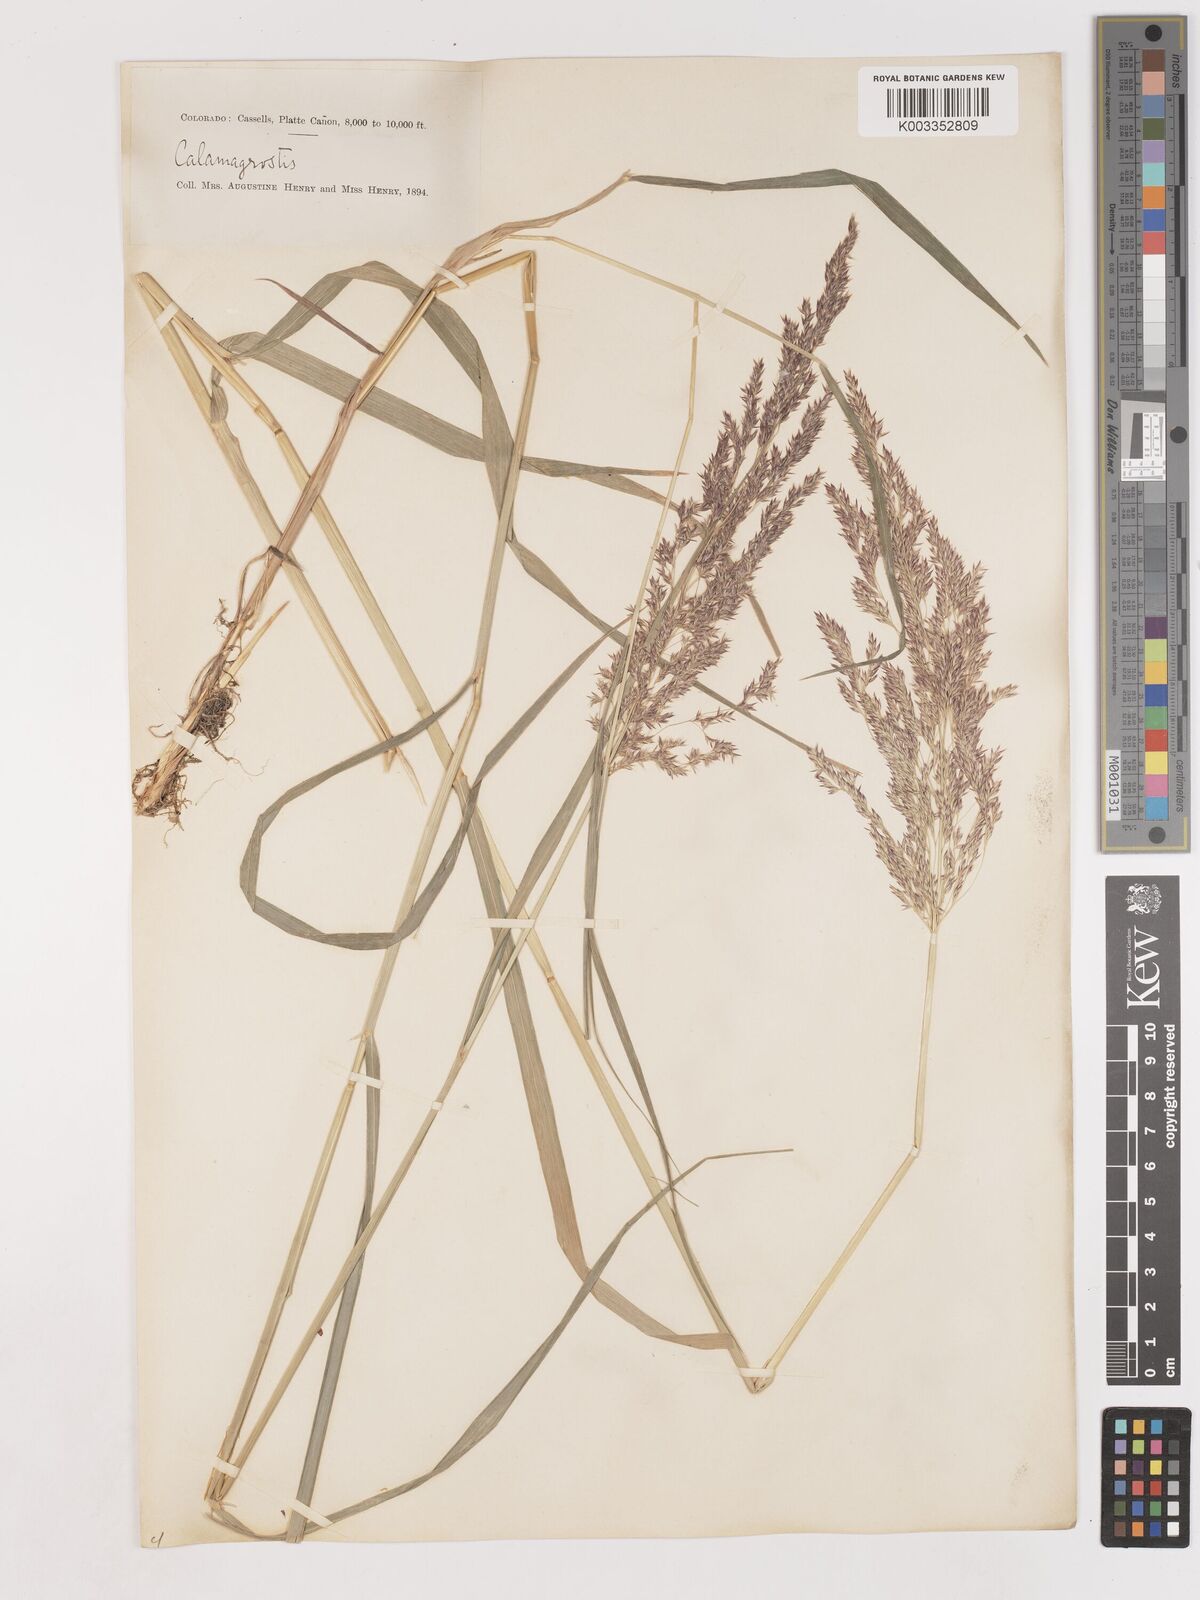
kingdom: Plantae
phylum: Tracheophyta
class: Liliopsida
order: Poales
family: Poaceae
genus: Calamagrostis
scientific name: Calamagrostis canadensis
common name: Canada bluejoint
